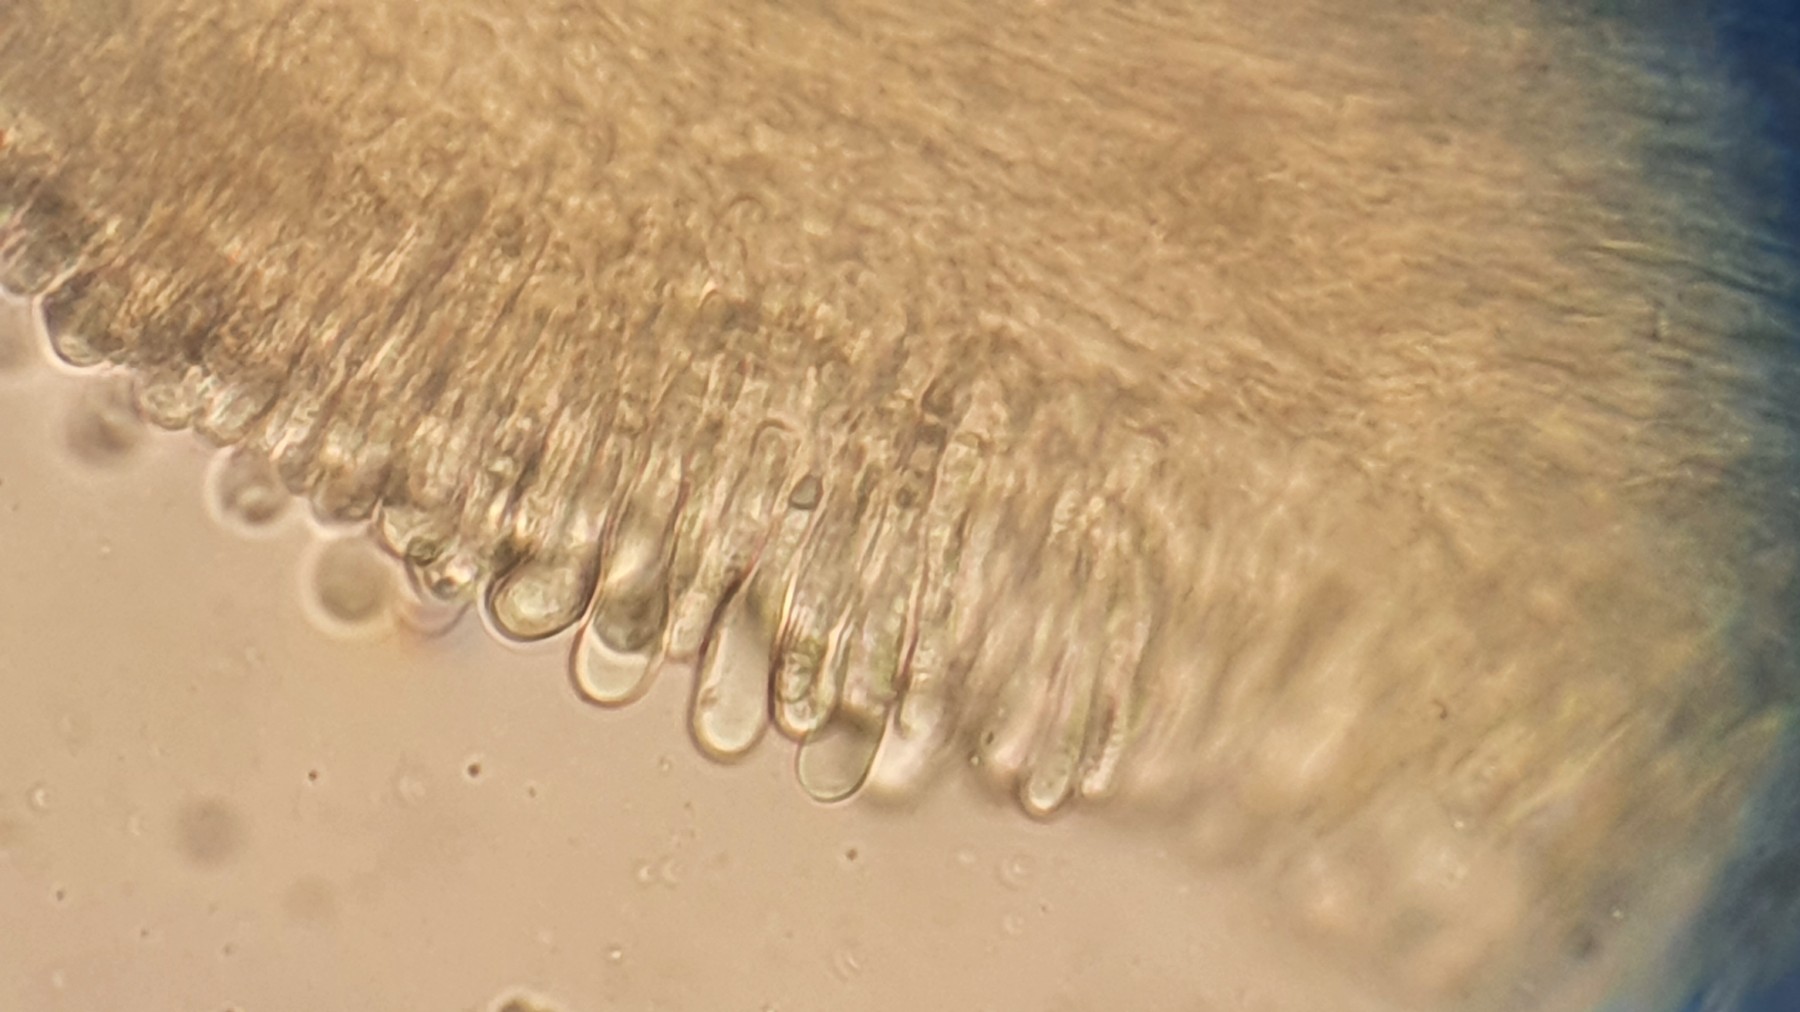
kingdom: Fungi
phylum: Basidiomycota
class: Agaricomycetes
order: Agaricales
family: Mycenaceae
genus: Mycena
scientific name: Mycena
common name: huesvamp
